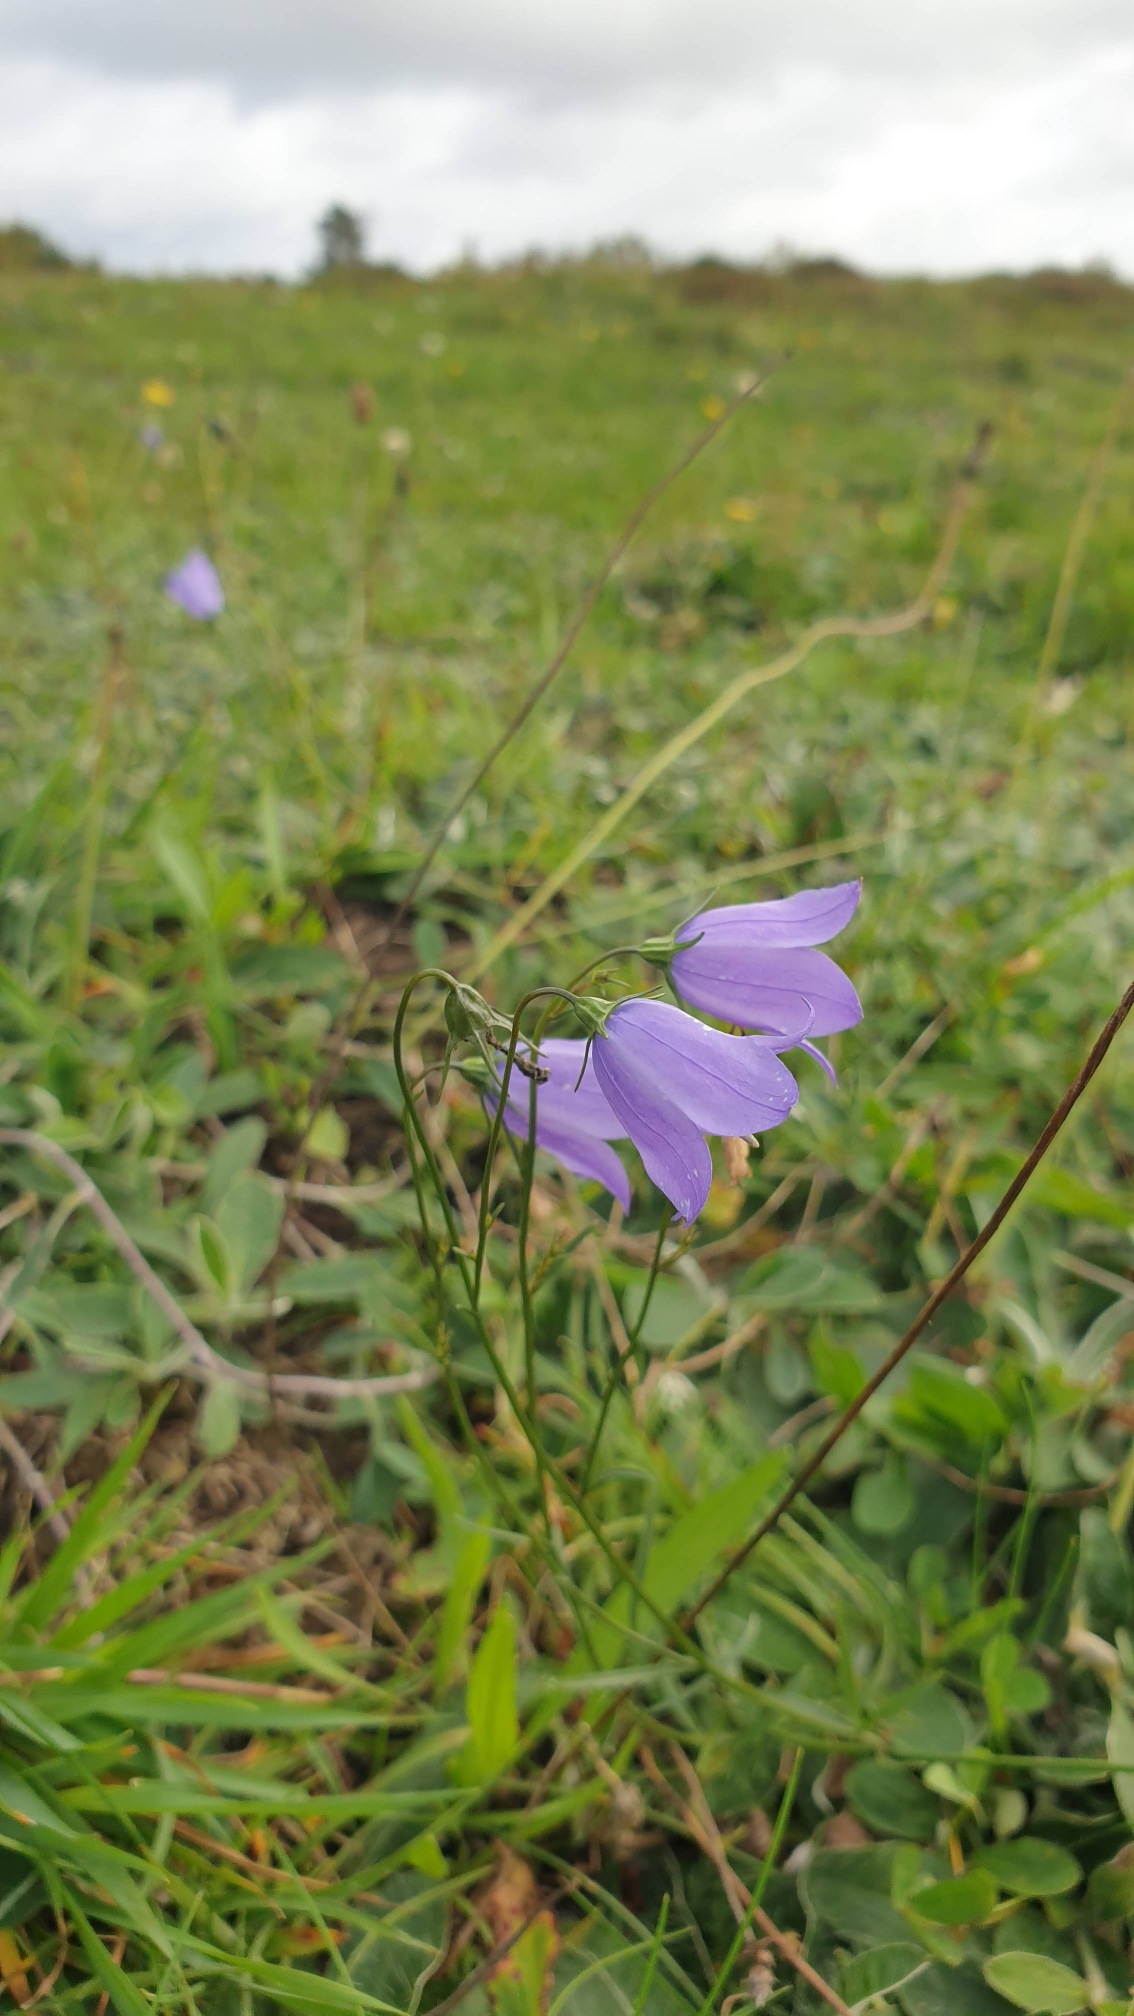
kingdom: Plantae
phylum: Tracheophyta
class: Magnoliopsida
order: Asterales
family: Campanulaceae
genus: Campanula
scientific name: Campanula rotundifolia
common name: Liden klokke
